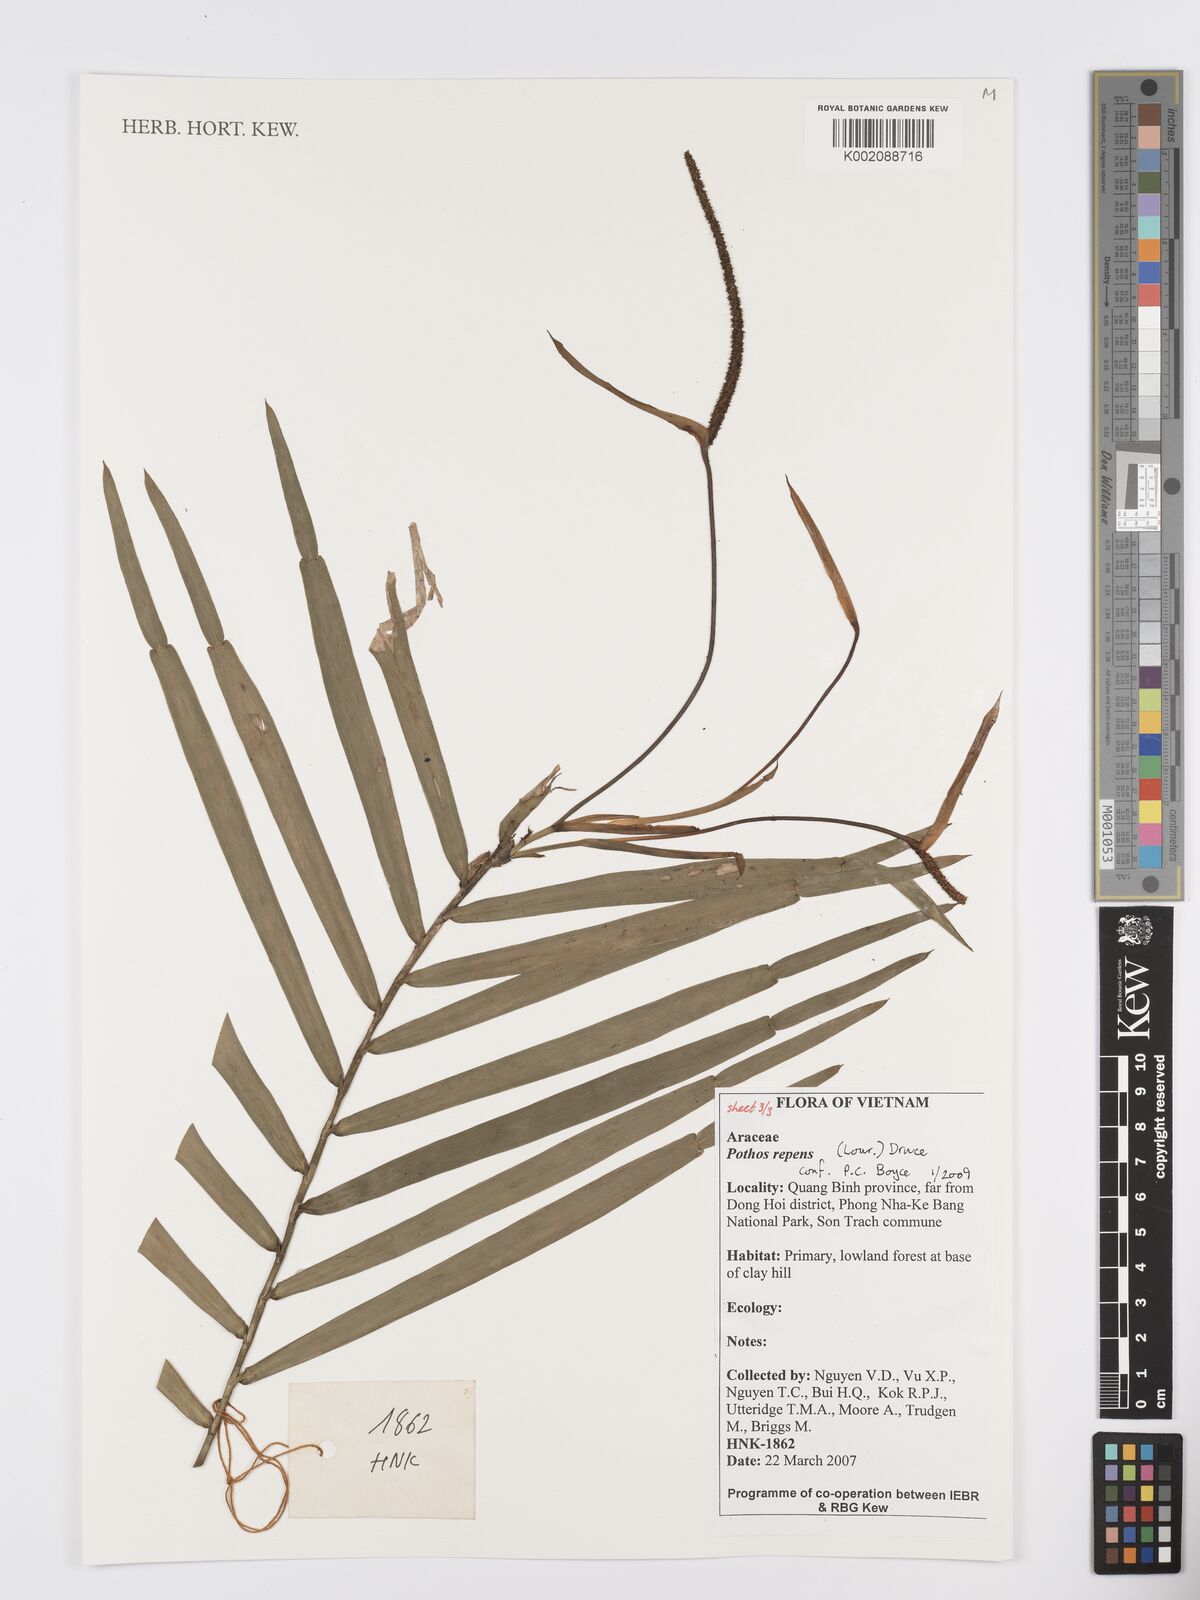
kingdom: Plantae
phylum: Tracheophyta
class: Liliopsida
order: Alismatales
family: Araceae
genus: Pothos
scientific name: Pothos repens
